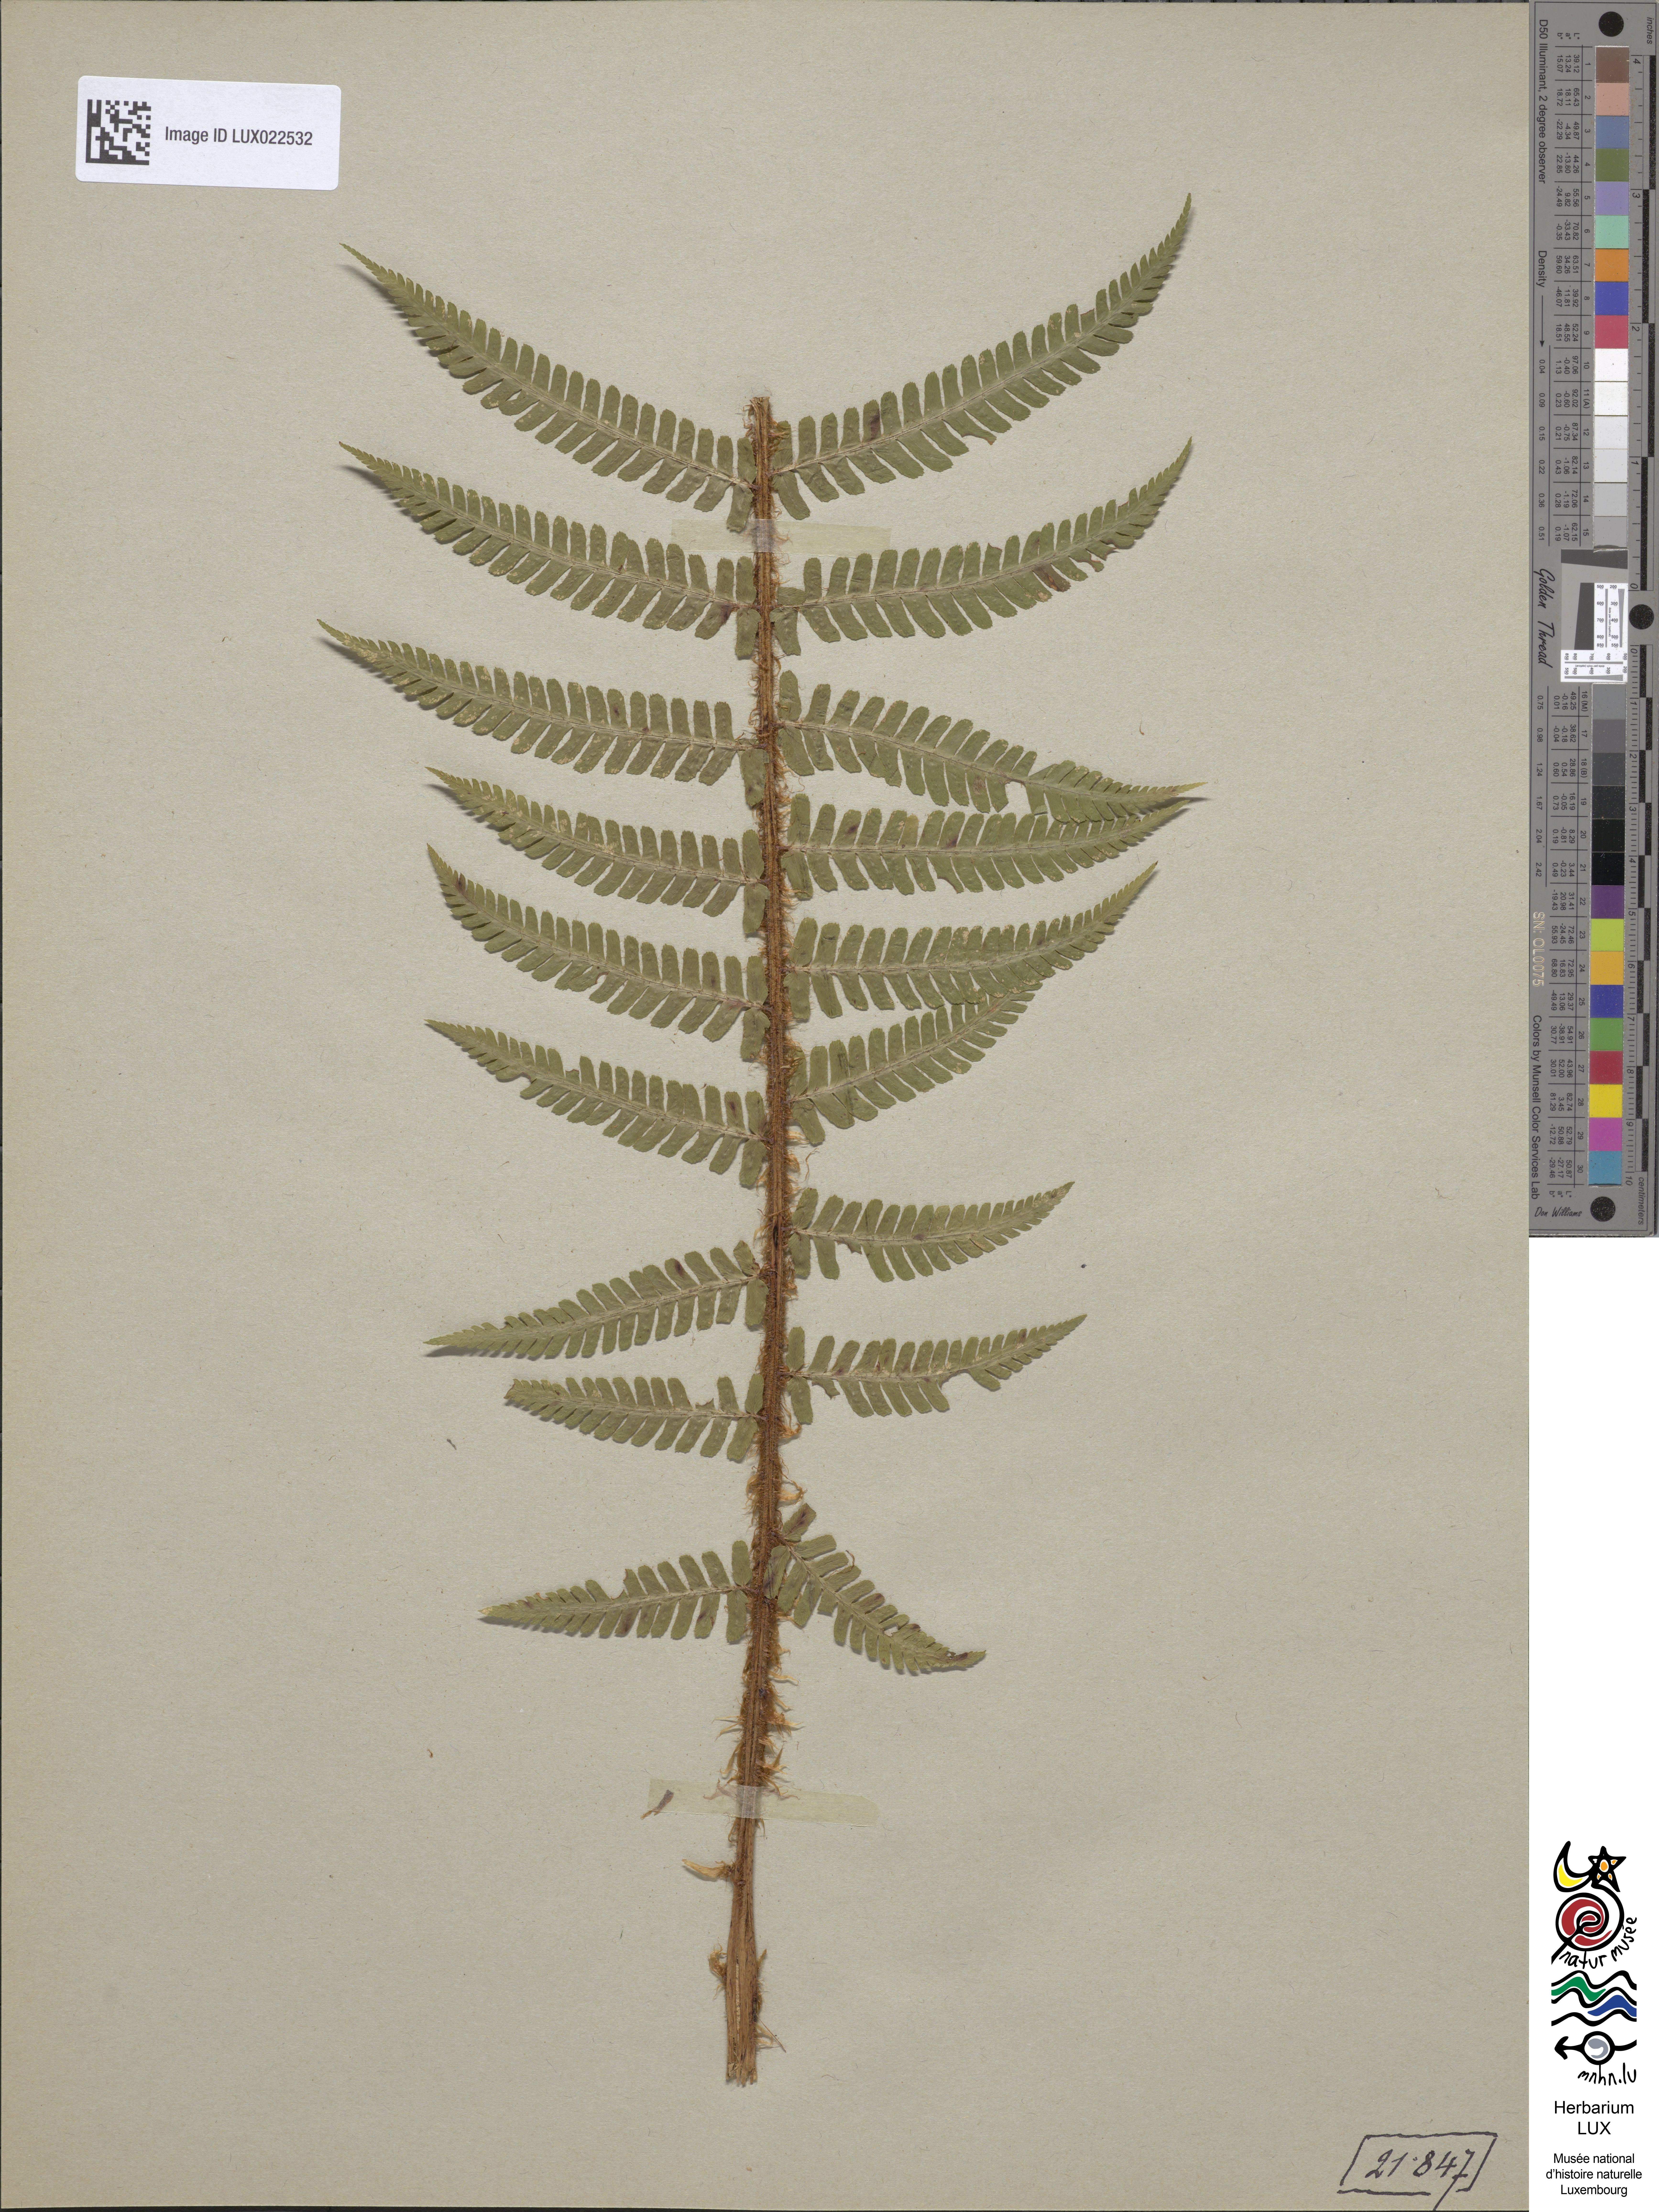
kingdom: Plantae
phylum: Tracheophyta
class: Polypodiopsida
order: Polypodiales
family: Dryopteridaceae
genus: Dryopteris
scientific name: Dryopteris borreri
